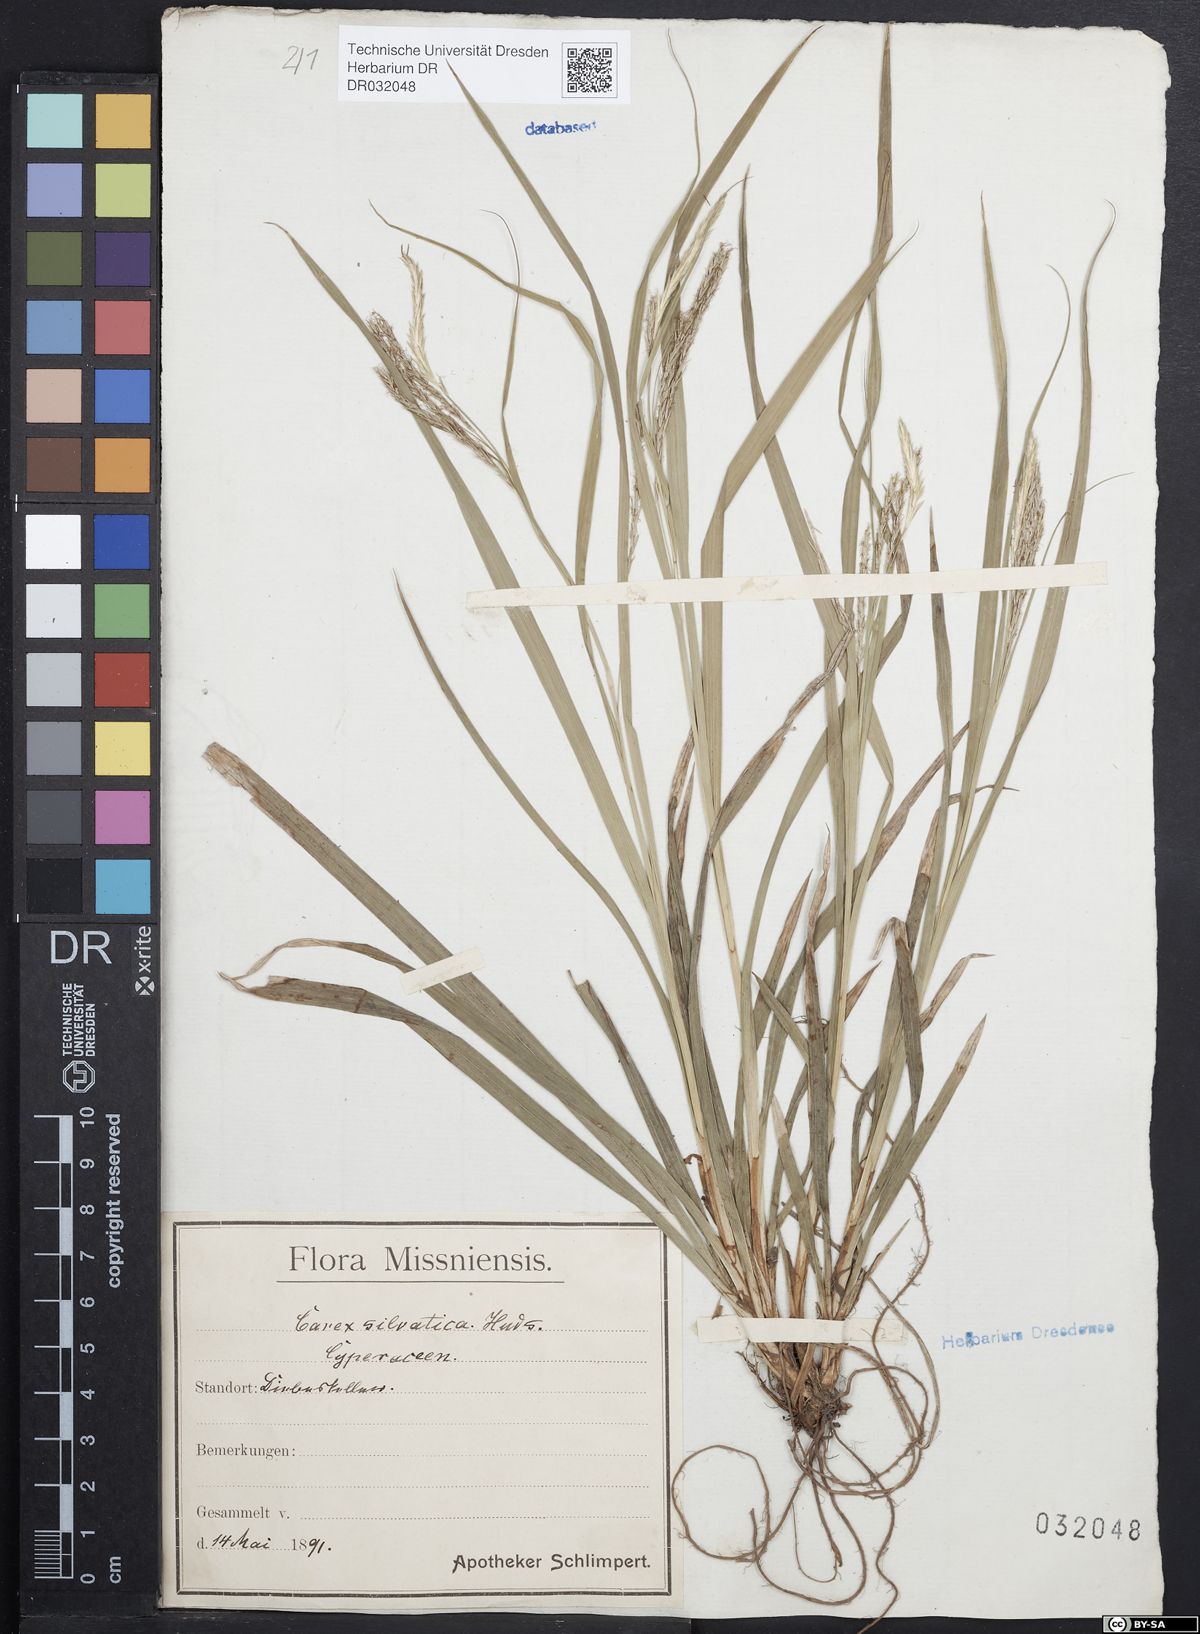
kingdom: Plantae
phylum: Tracheophyta
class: Liliopsida
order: Poales
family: Cyperaceae
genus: Carex
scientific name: Carex sylvatica
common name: Wood-sedge
